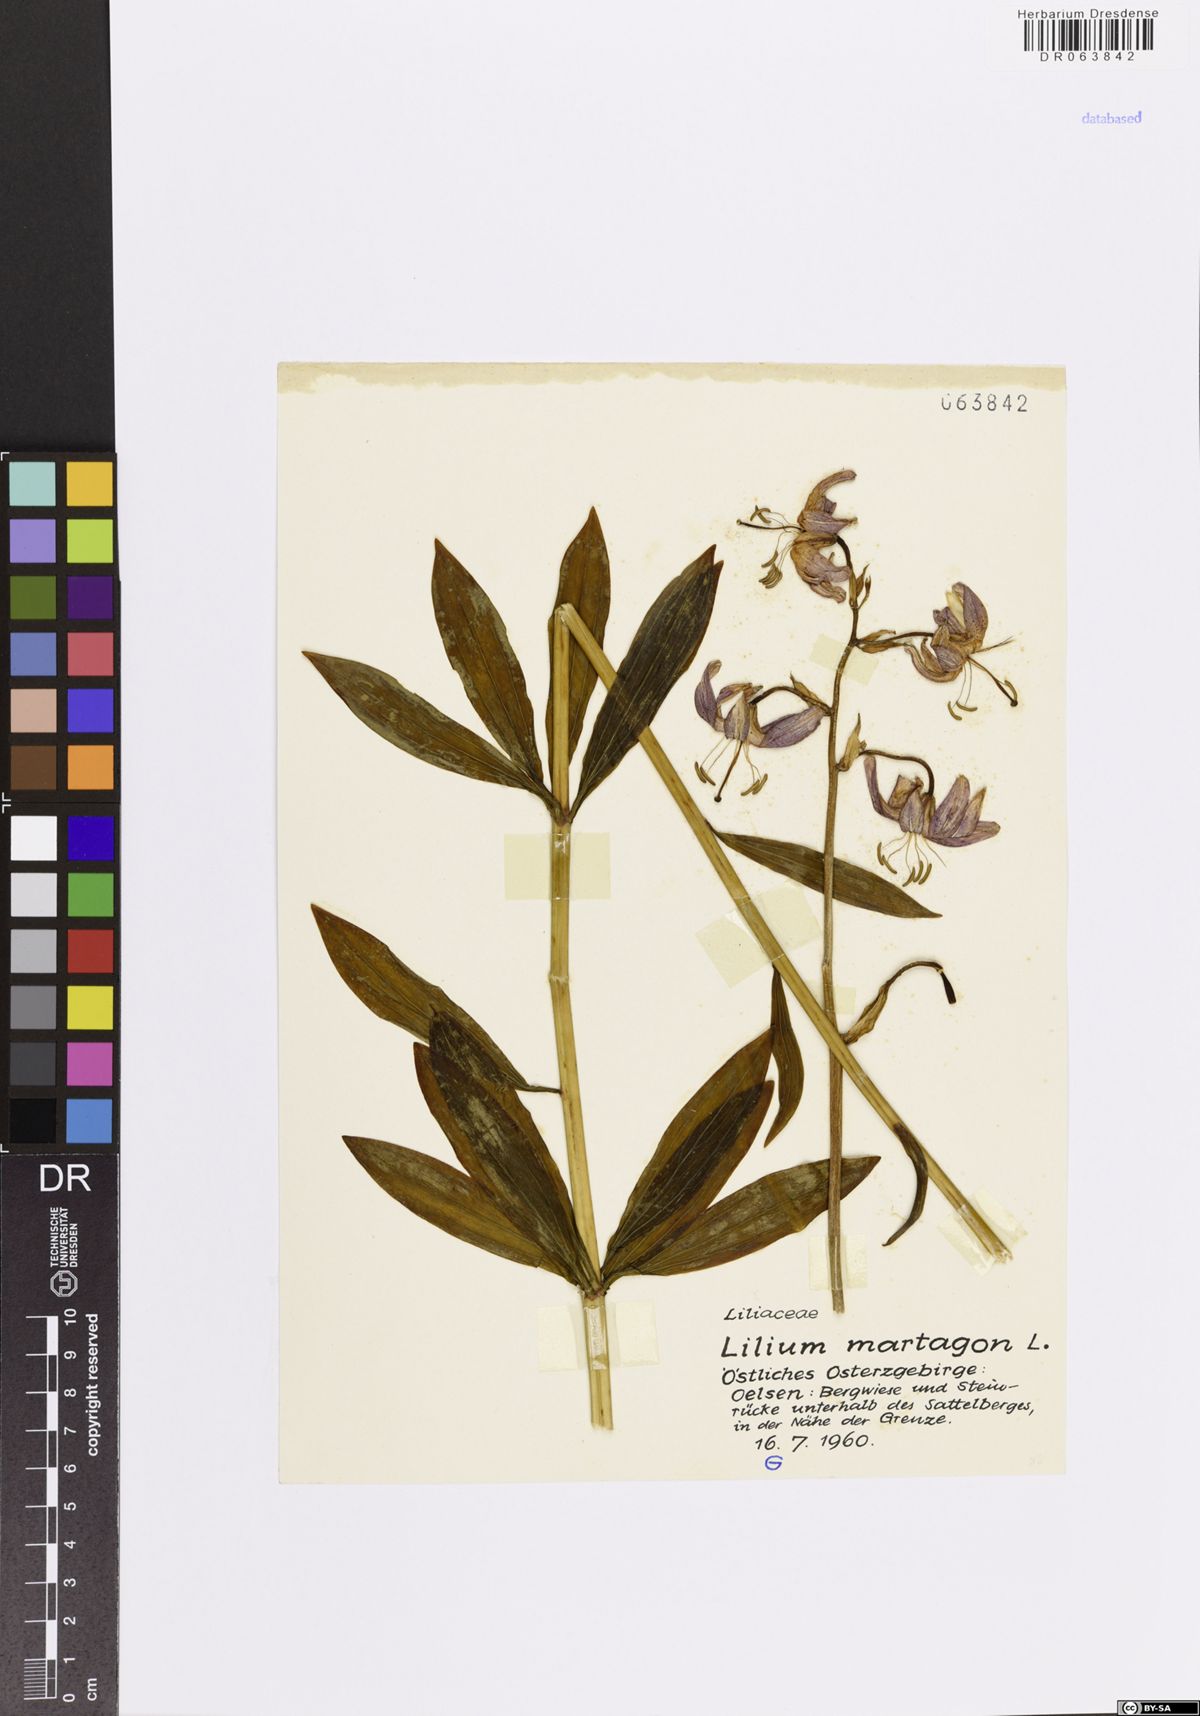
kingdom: Plantae
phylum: Tracheophyta
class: Liliopsida
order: Liliales
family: Liliaceae
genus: Lilium
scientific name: Lilium martagon
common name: Martagon lily
